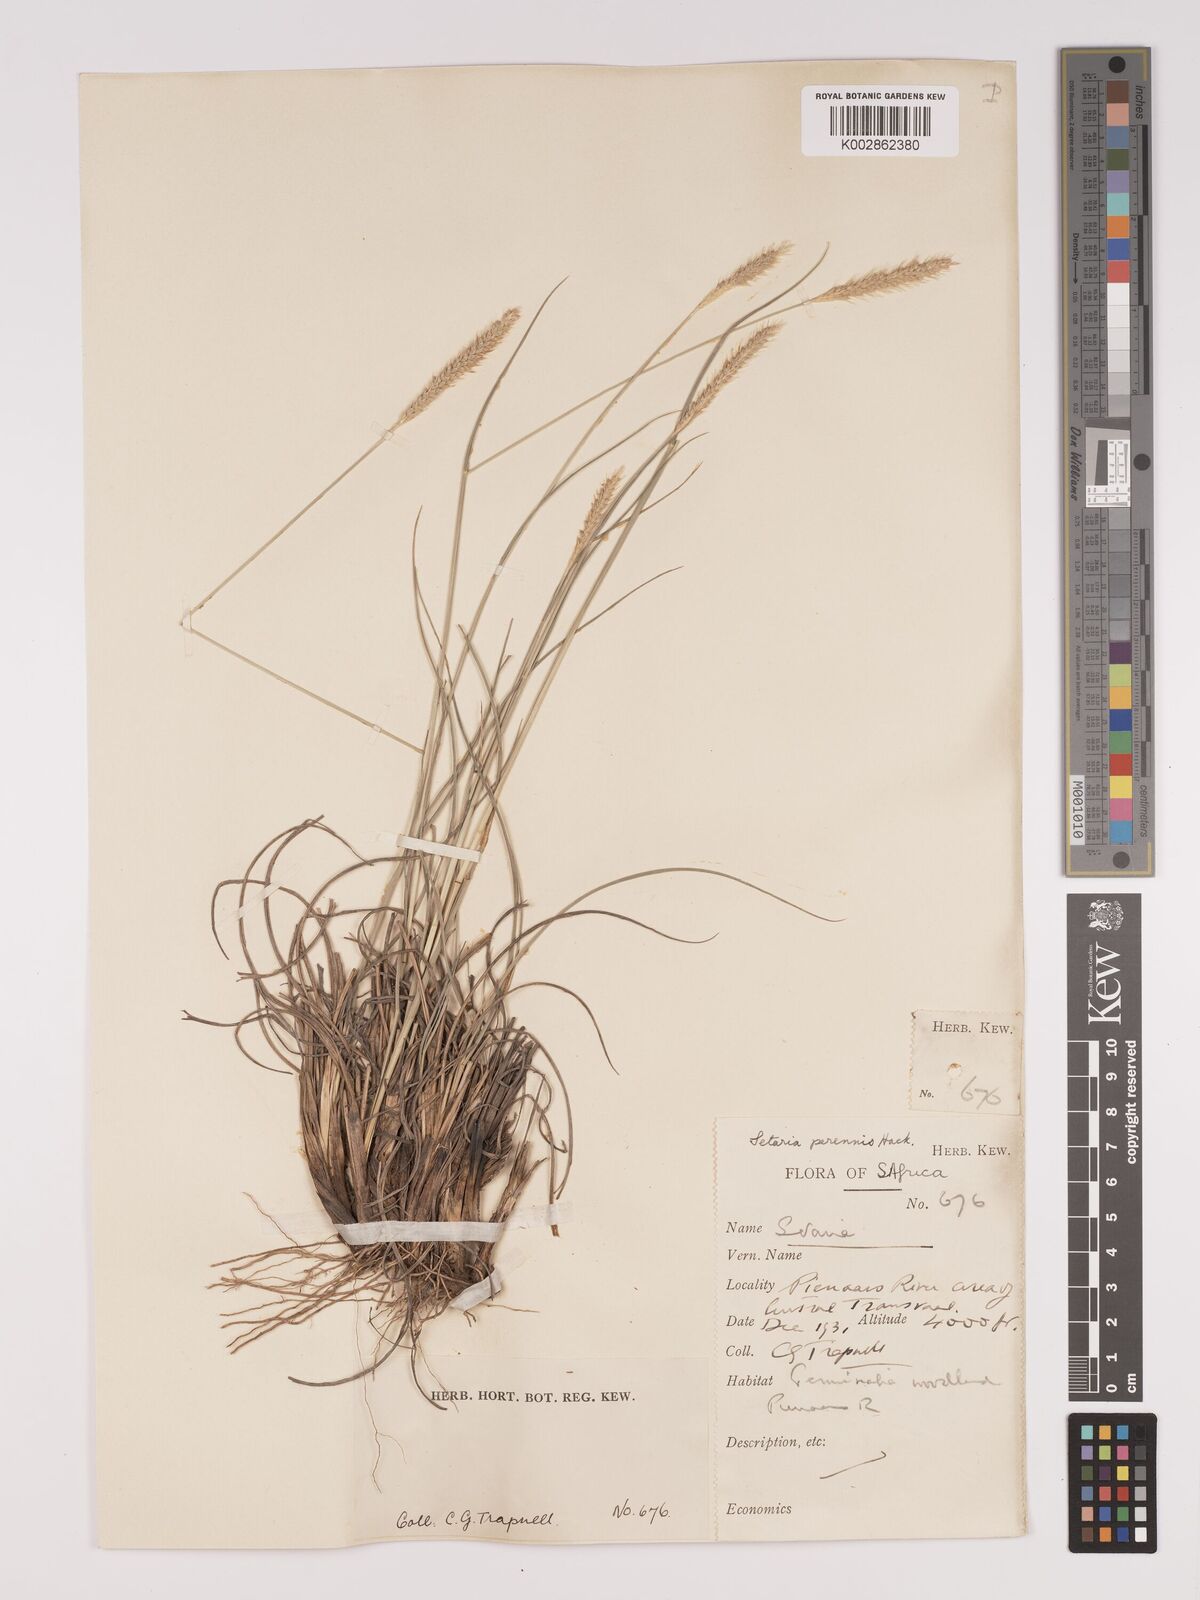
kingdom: Plantae
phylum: Tracheophyta
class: Liliopsida
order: Poales
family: Poaceae
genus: Setaria
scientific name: Setaria sphacelata
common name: African bristlegrass
